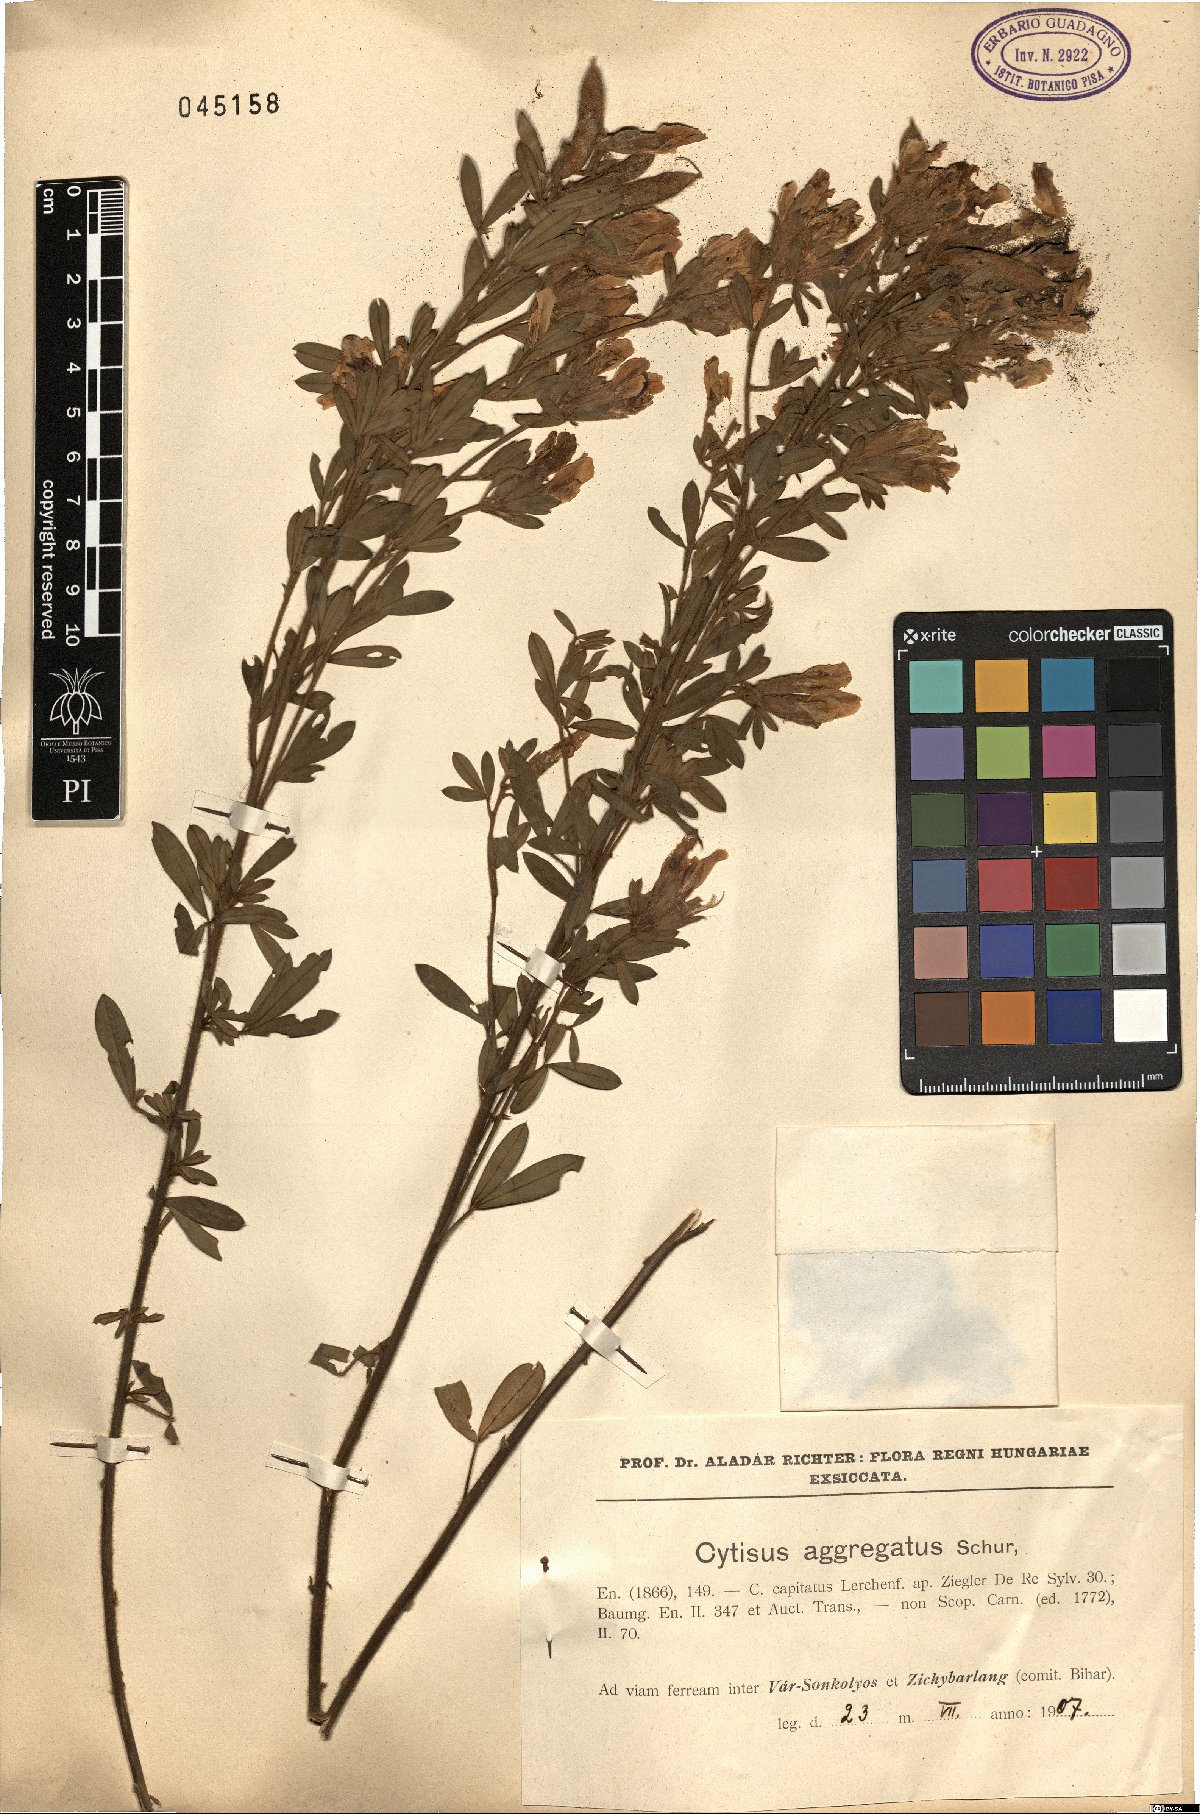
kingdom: Plantae
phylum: Tracheophyta
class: Magnoliopsida
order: Fabales
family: Fabaceae
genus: Chamaecytisus
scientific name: Chamaecytisus supinus
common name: Clustered broom
